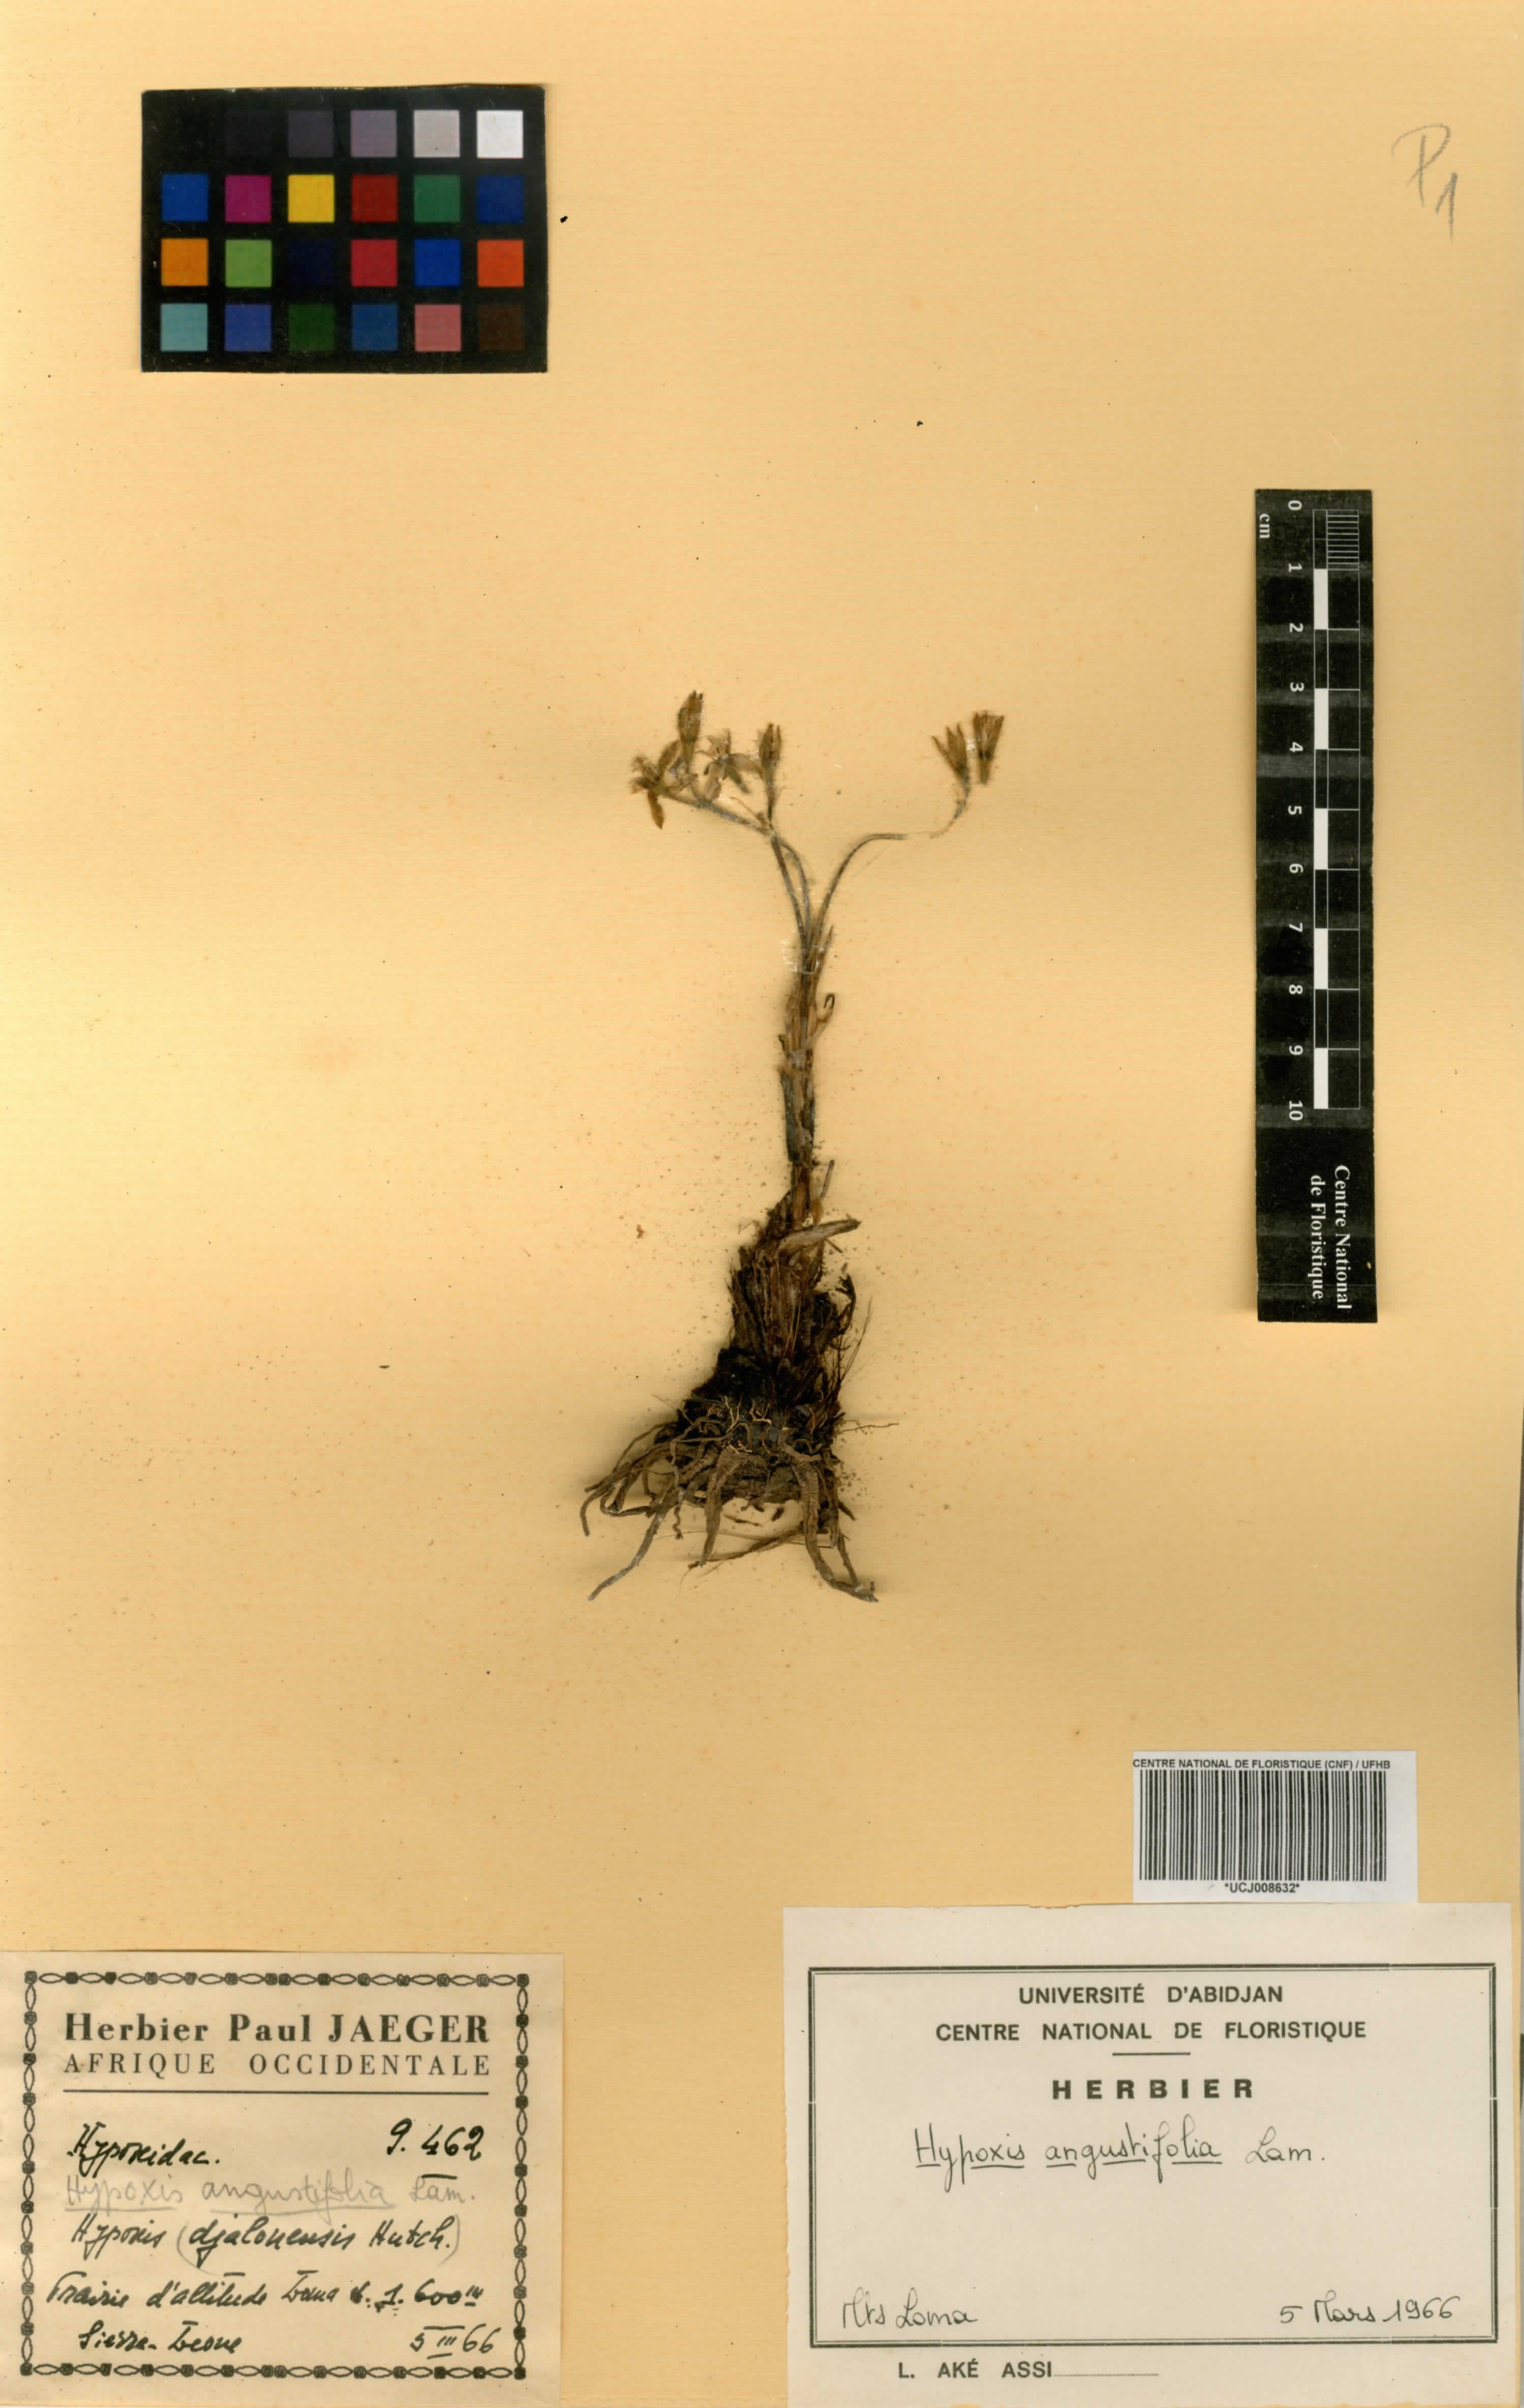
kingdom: Plantae
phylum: Tracheophyta
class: Liliopsida
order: Asparagales
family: Hypoxidaceae
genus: Hypoxis
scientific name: Hypoxis angustifolia
